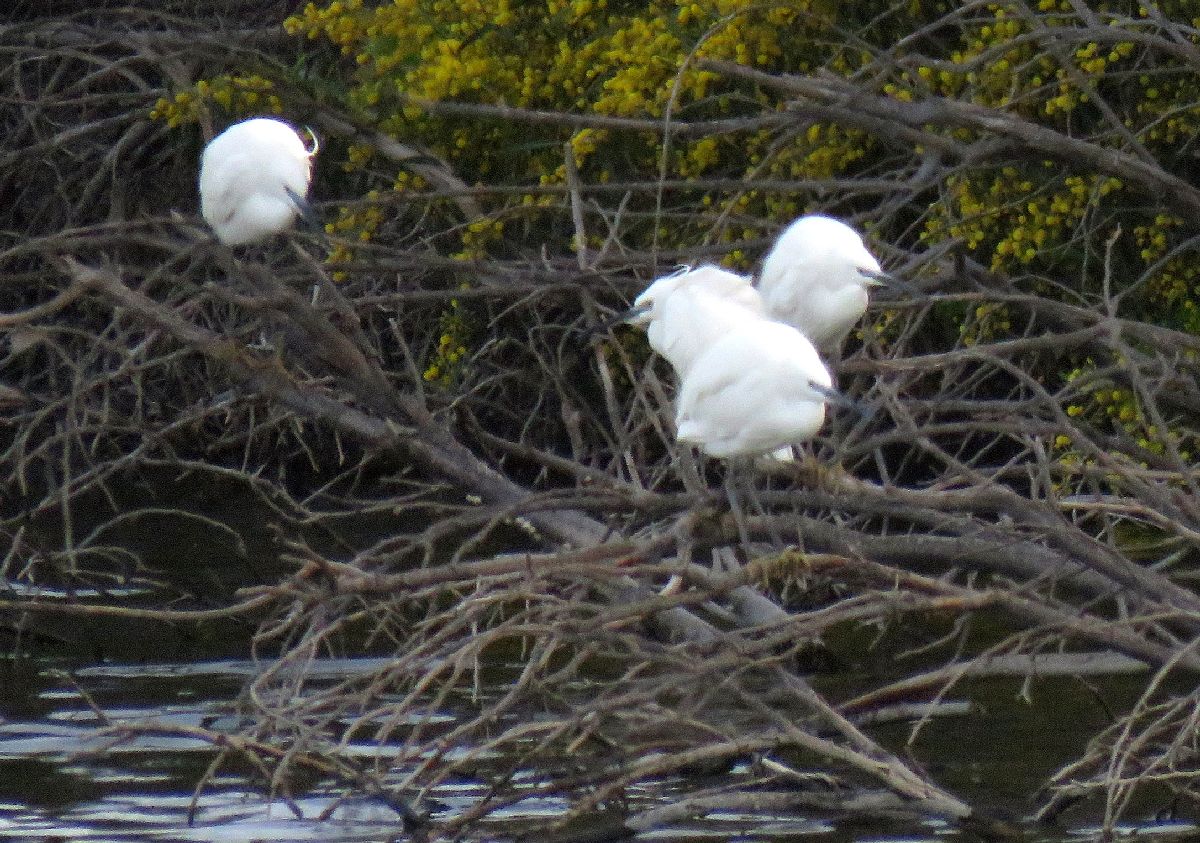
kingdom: Animalia
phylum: Chordata
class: Aves
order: Pelecaniformes
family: Ardeidae
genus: Egretta
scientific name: Egretta garzetta
